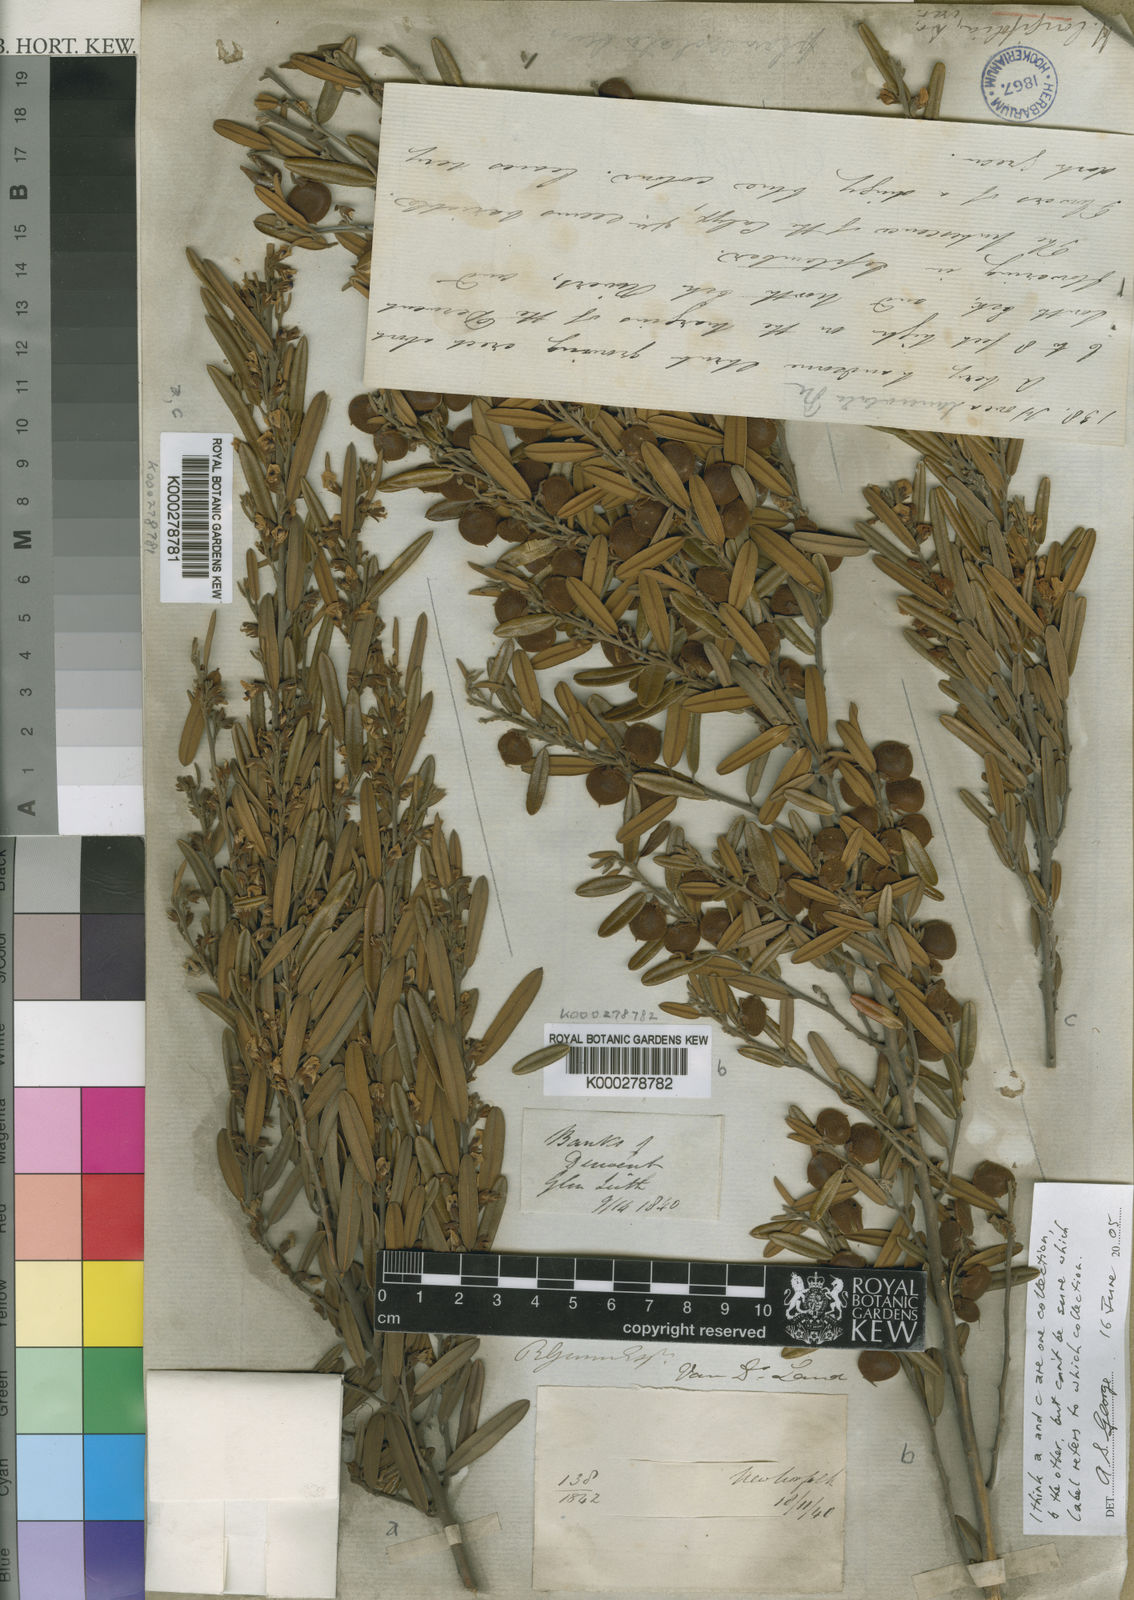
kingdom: Plantae
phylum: Tracheophyta
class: Magnoliopsida
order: Fabales
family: Fabaceae
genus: Hovea
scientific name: Hovea longifolia
